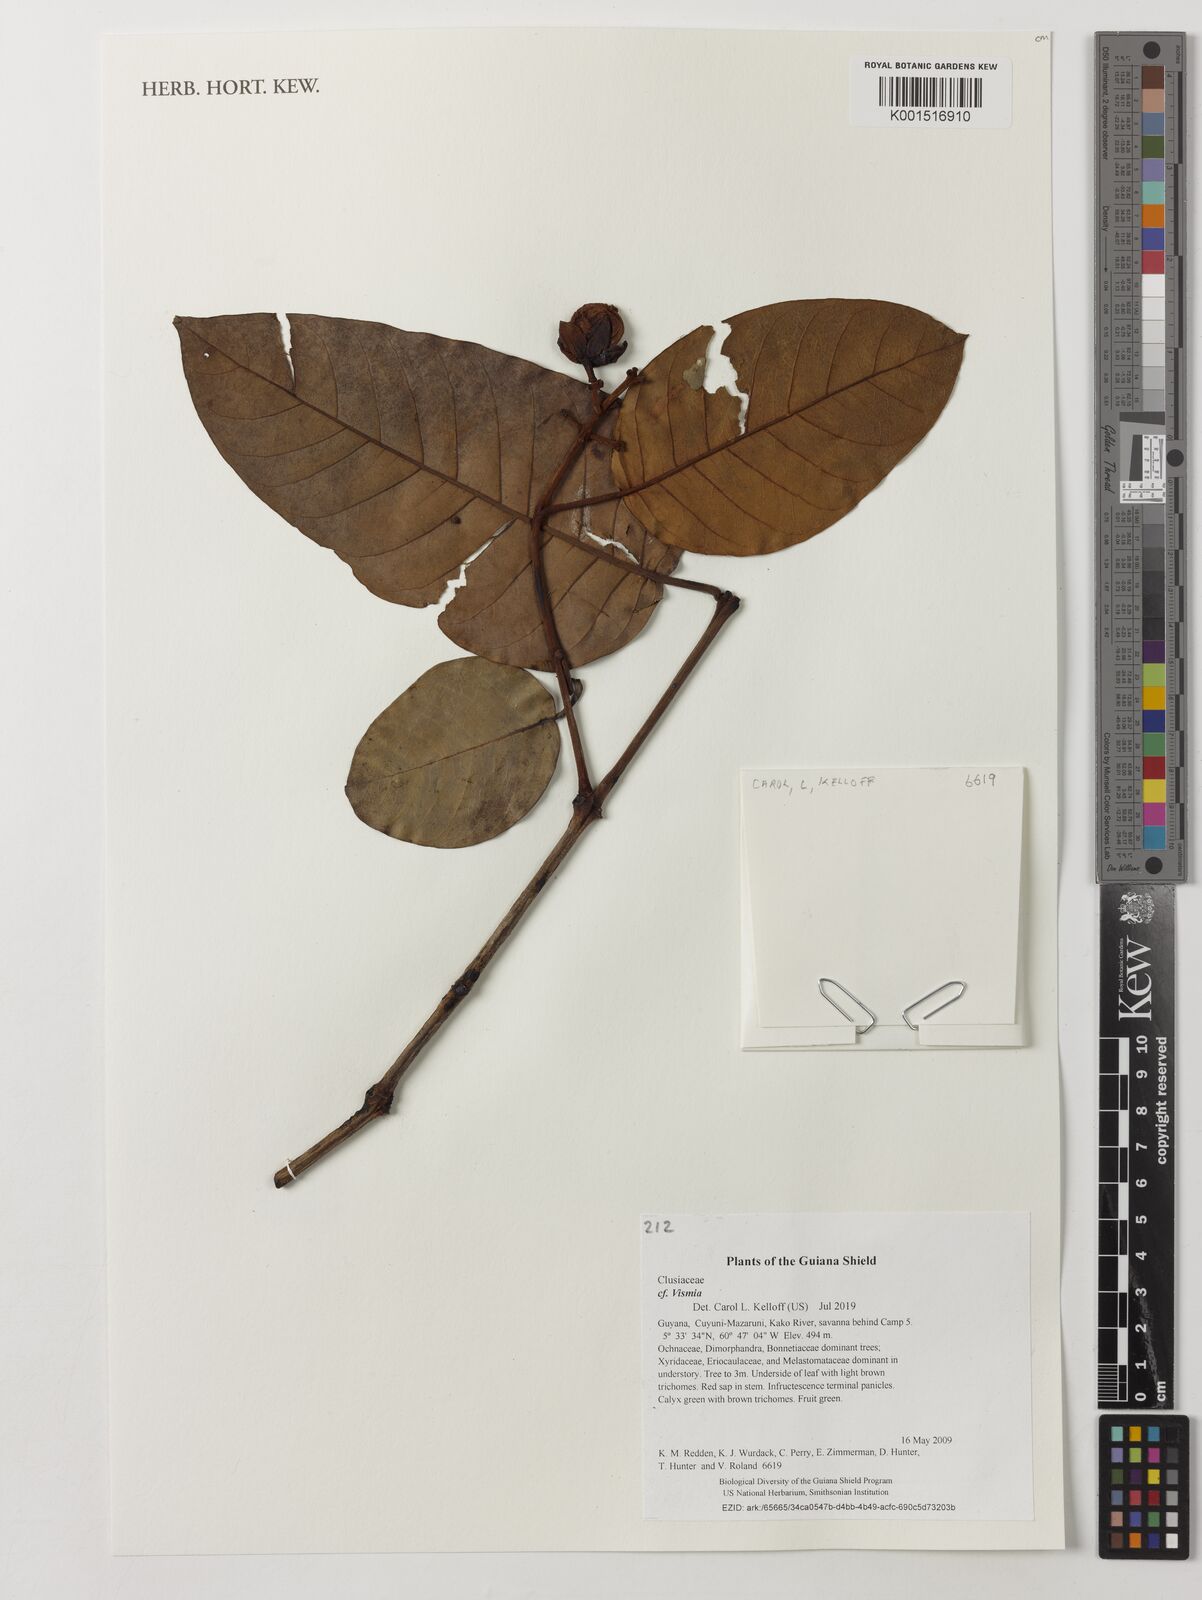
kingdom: Plantae
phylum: Tracheophyta
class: Magnoliopsida
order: Malpighiales
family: Hypericaceae
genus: Vismia
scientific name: Vismia
